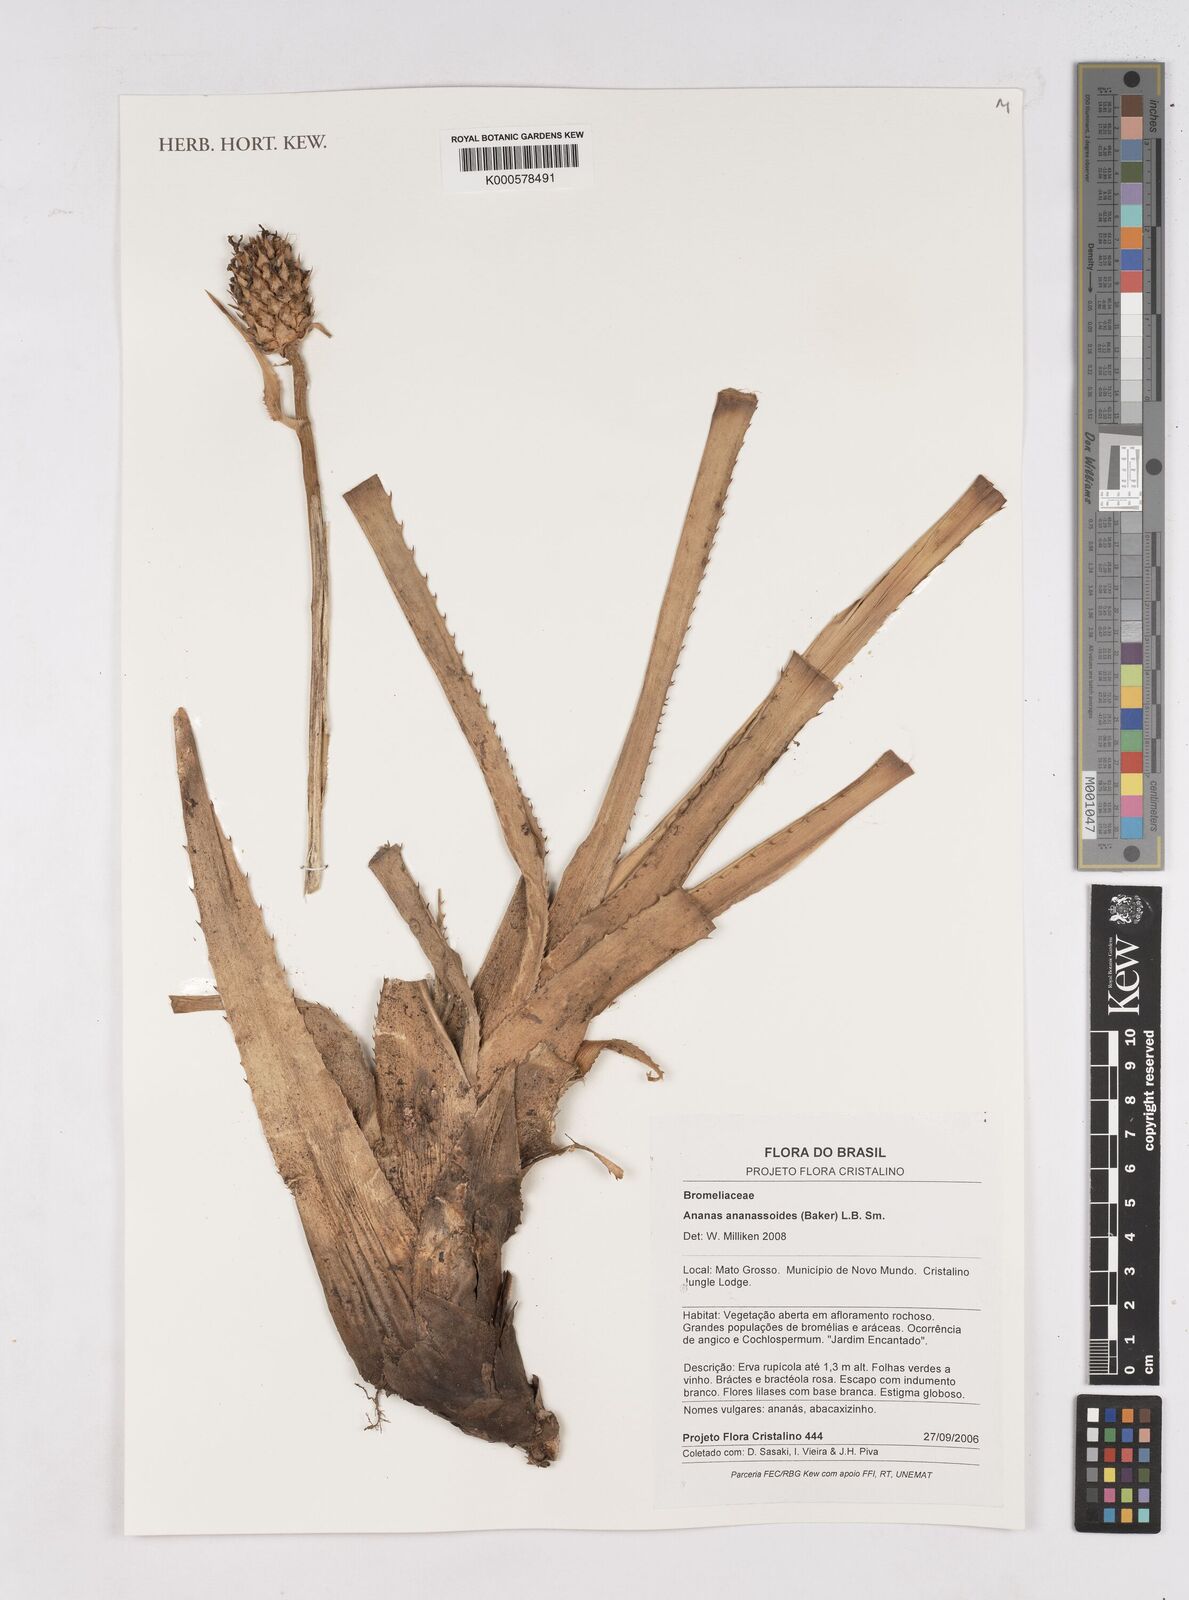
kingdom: Plantae
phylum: Tracheophyta
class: Liliopsida
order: Poales
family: Bromeliaceae
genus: Ananas
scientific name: Ananas comosus
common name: Pineapple
